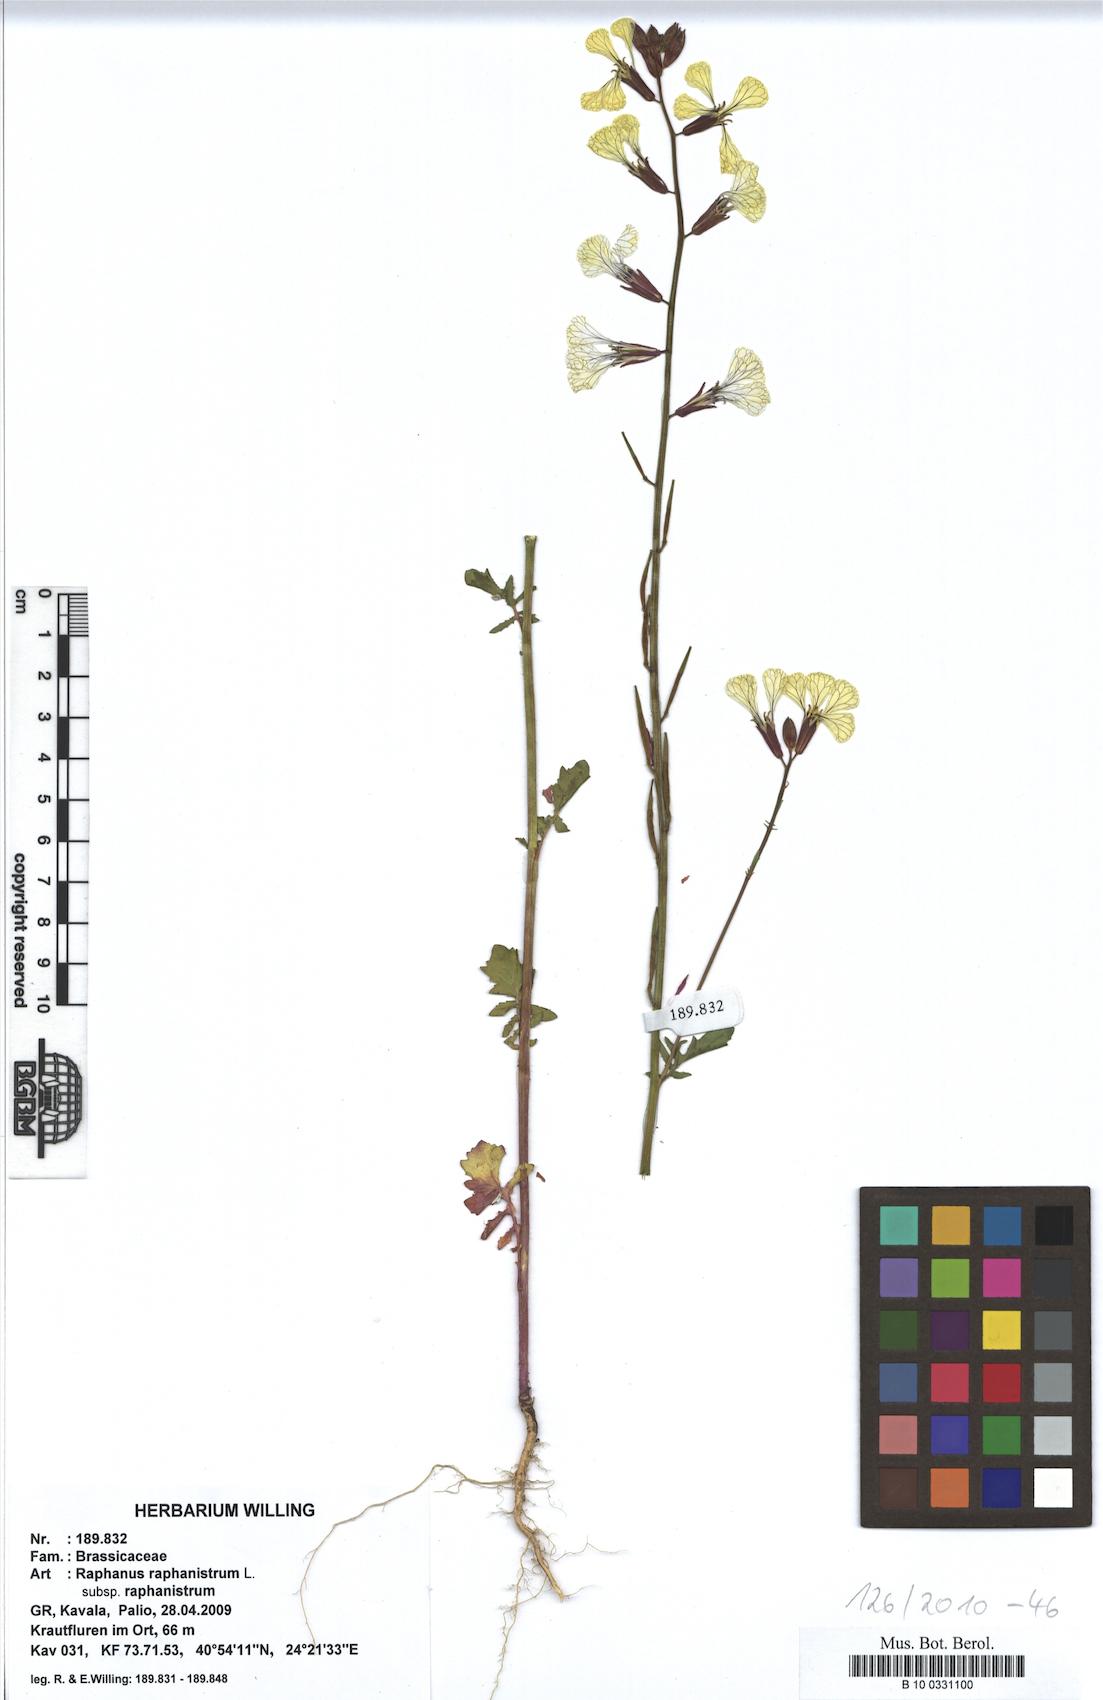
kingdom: Plantae
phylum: Tracheophyta
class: Magnoliopsida
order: Brassicales
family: Brassicaceae
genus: Raphanus
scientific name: Raphanus raphanistrum
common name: Wild radish
